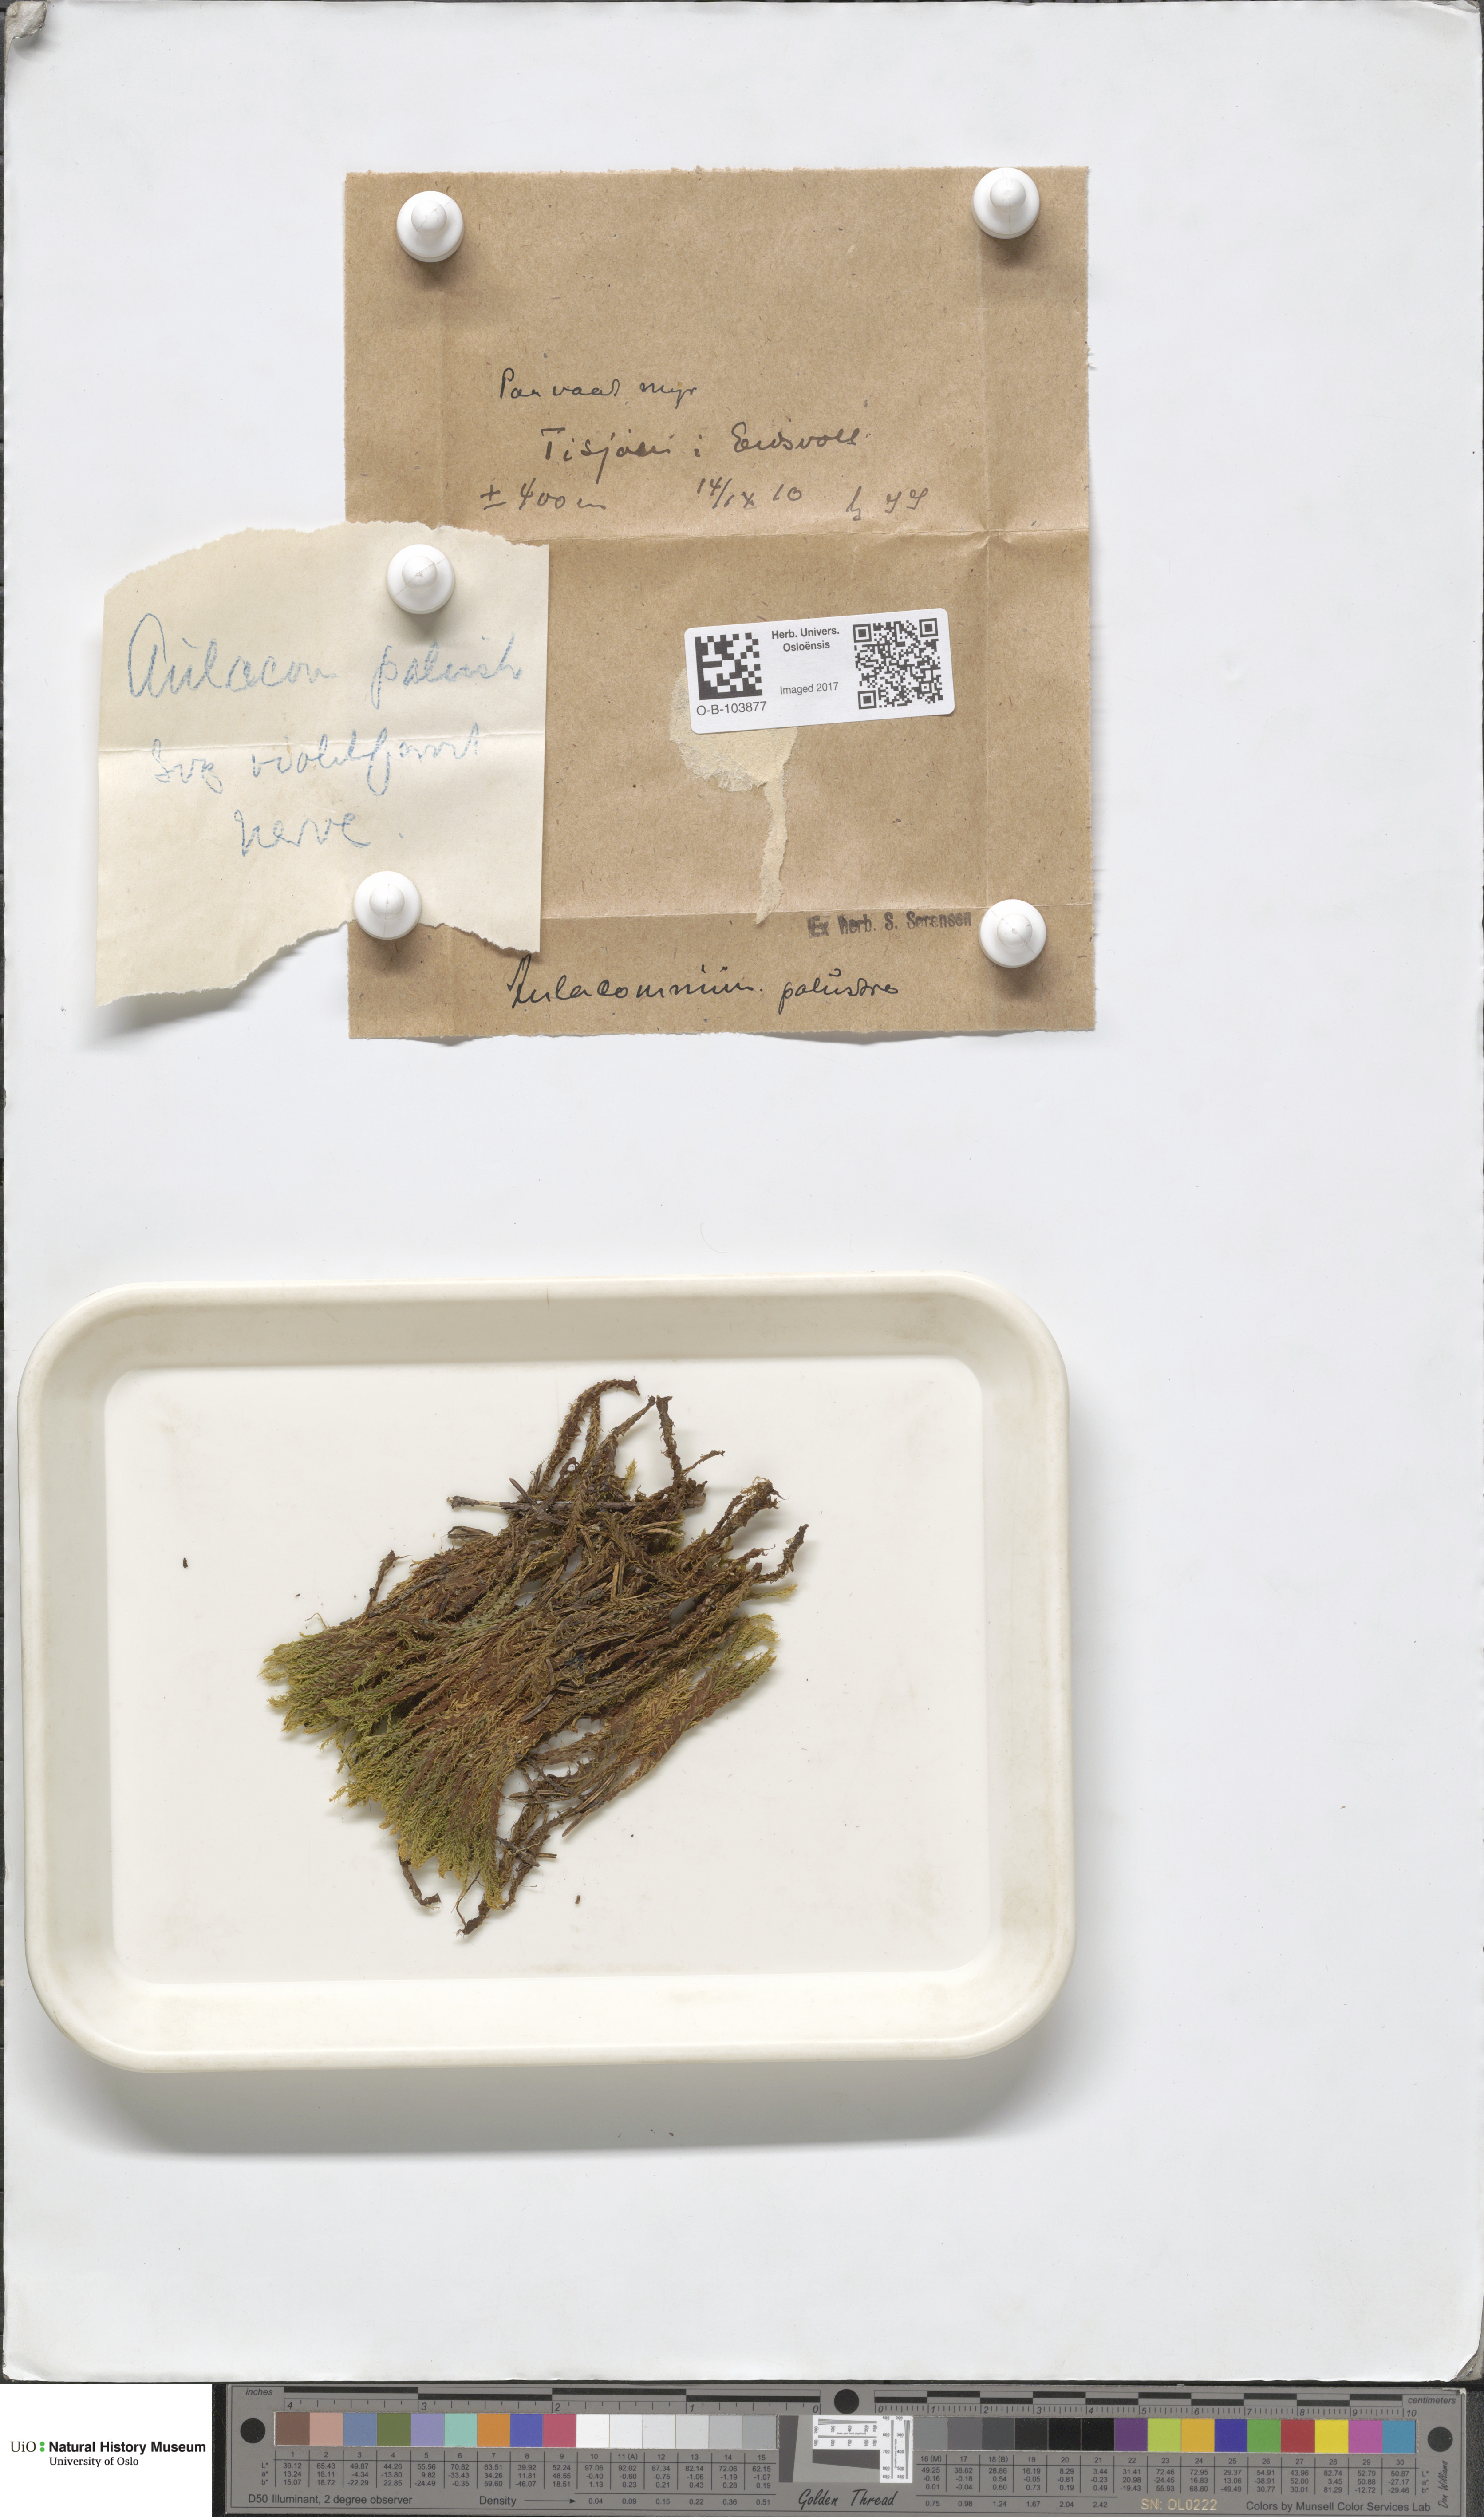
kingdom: Plantae
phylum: Bryophyta
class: Bryopsida
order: Aulacomniales
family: Aulacomniaceae
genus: Aulacomnium
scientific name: Aulacomnium palustre
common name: Bog groove-moss
